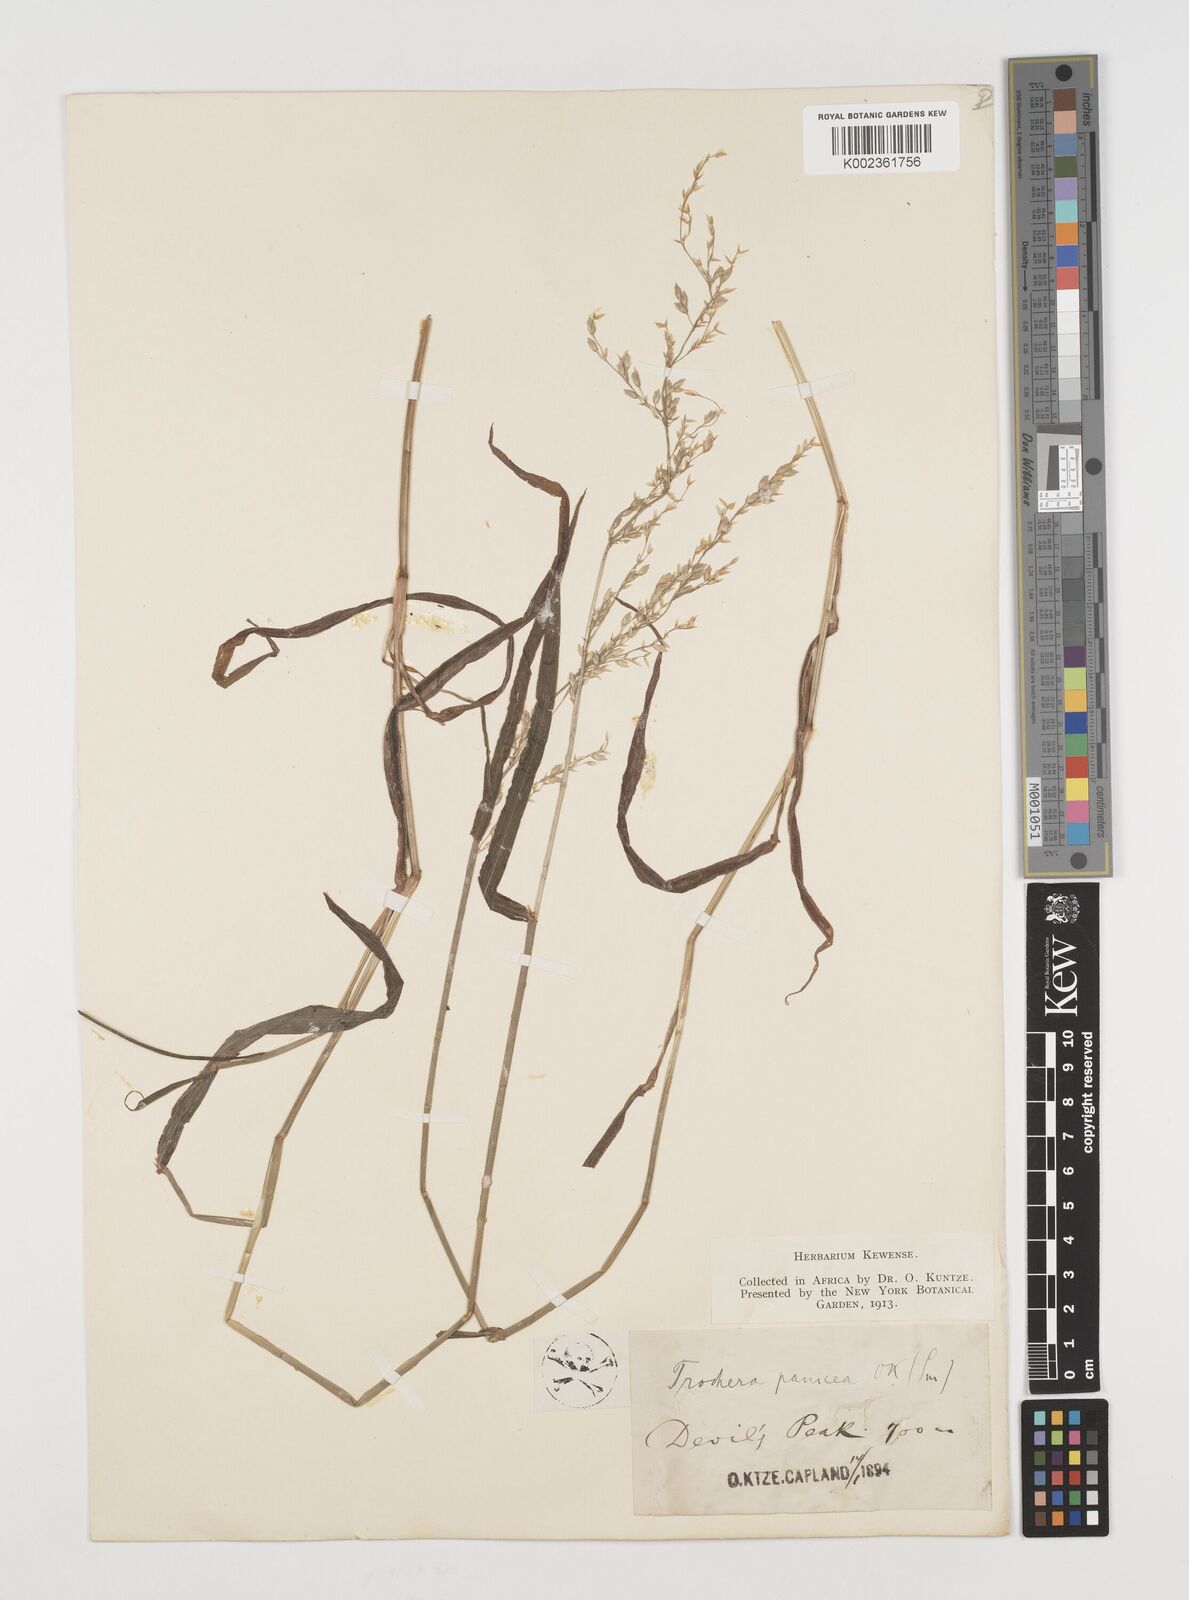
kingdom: Plantae
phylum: Tracheophyta
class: Liliopsida
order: Poales
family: Poaceae
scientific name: Poaceae
